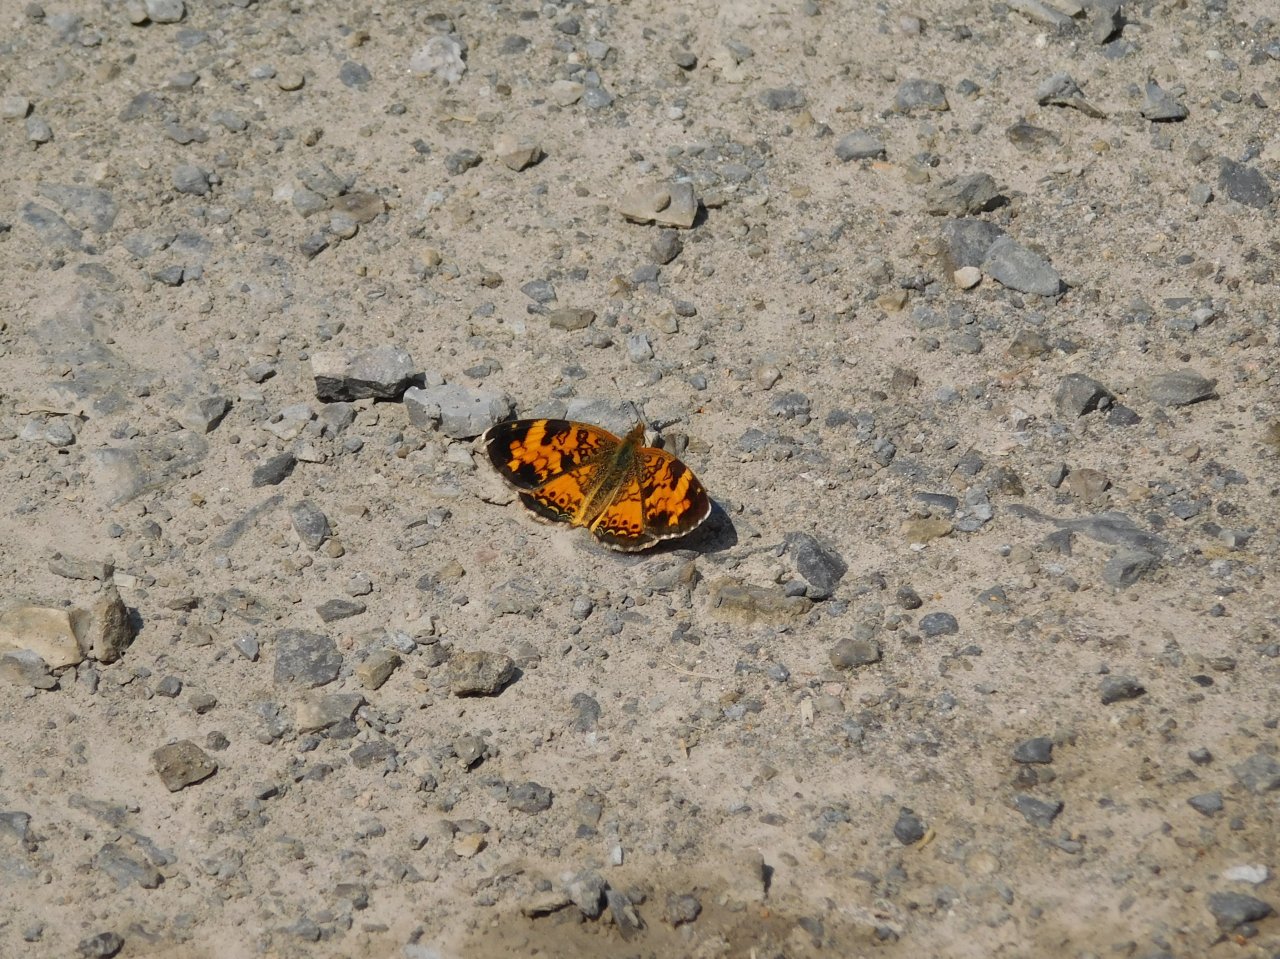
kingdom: Animalia
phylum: Arthropoda
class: Insecta
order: Lepidoptera
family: Nymphalidae
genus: Phyciodes
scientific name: Phyciodes tharos
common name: Northern Crescent
